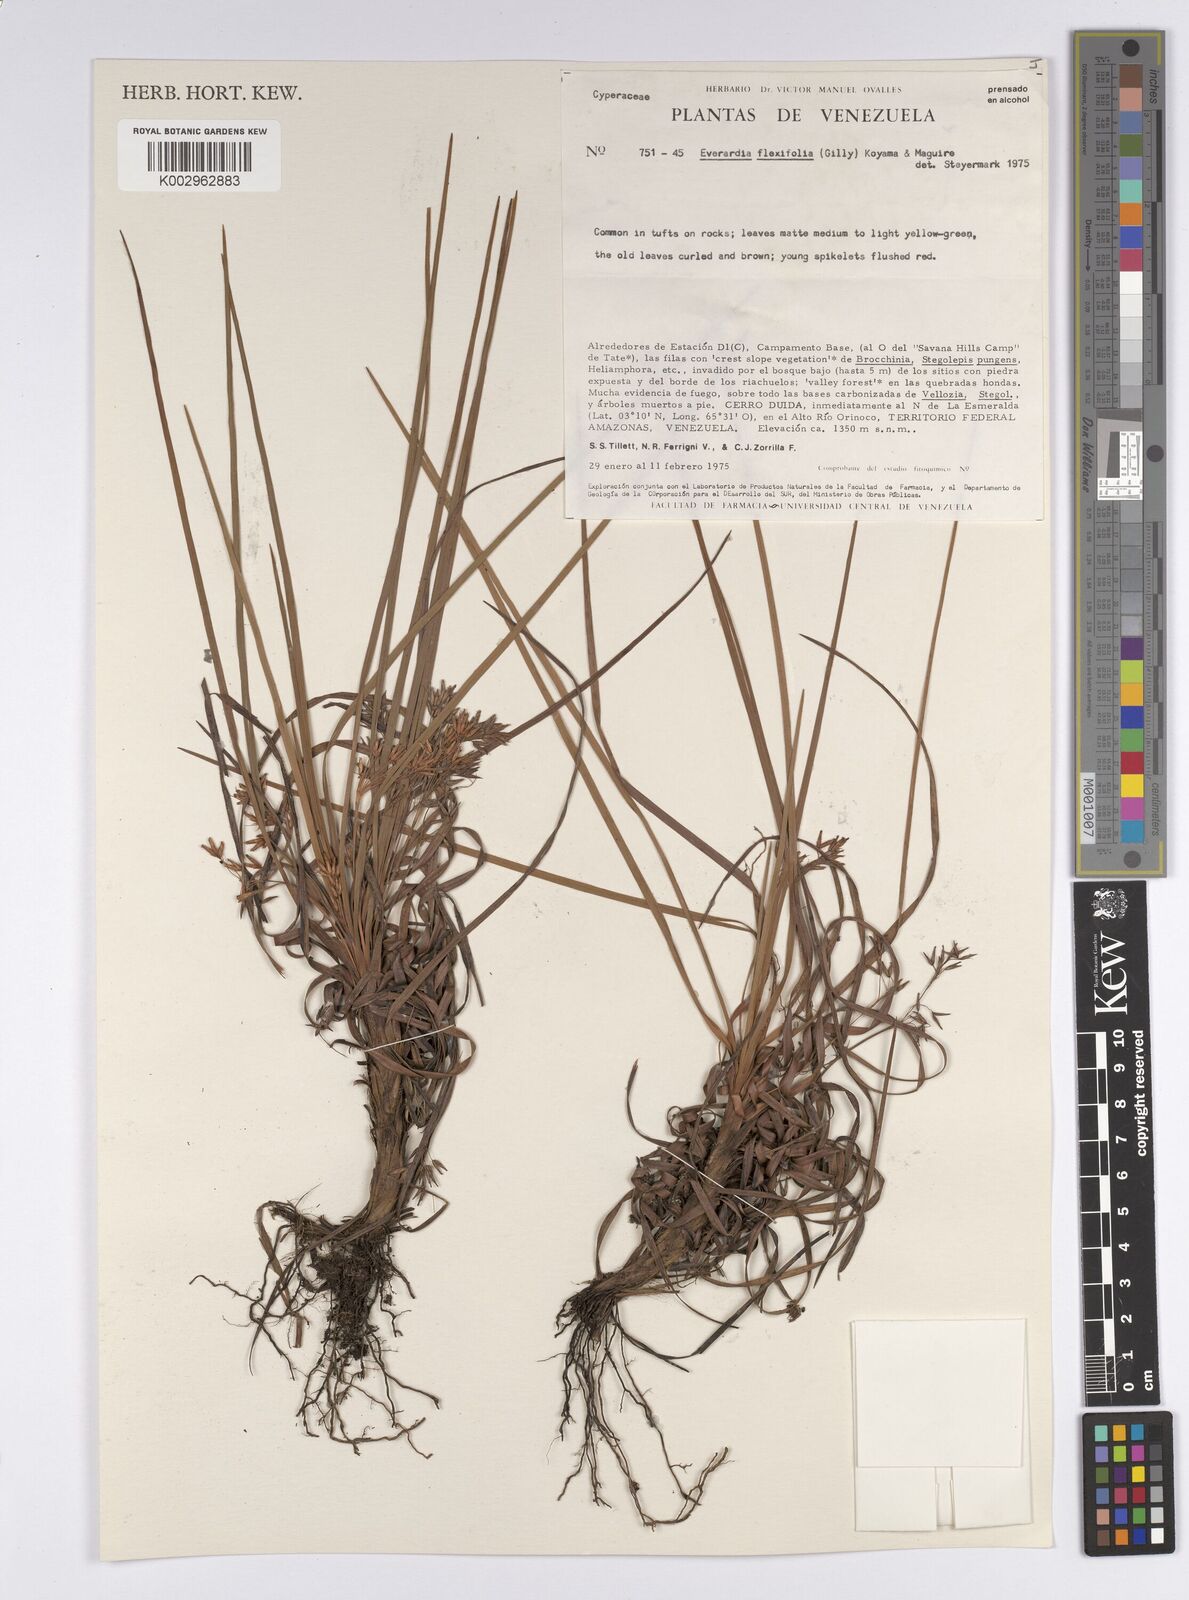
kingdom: Plantae
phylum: Tracheophyta
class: Liliopsida
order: Poales
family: Cyperaceae
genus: Cephalocarpus
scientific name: Cephalocarpus flexifolium
